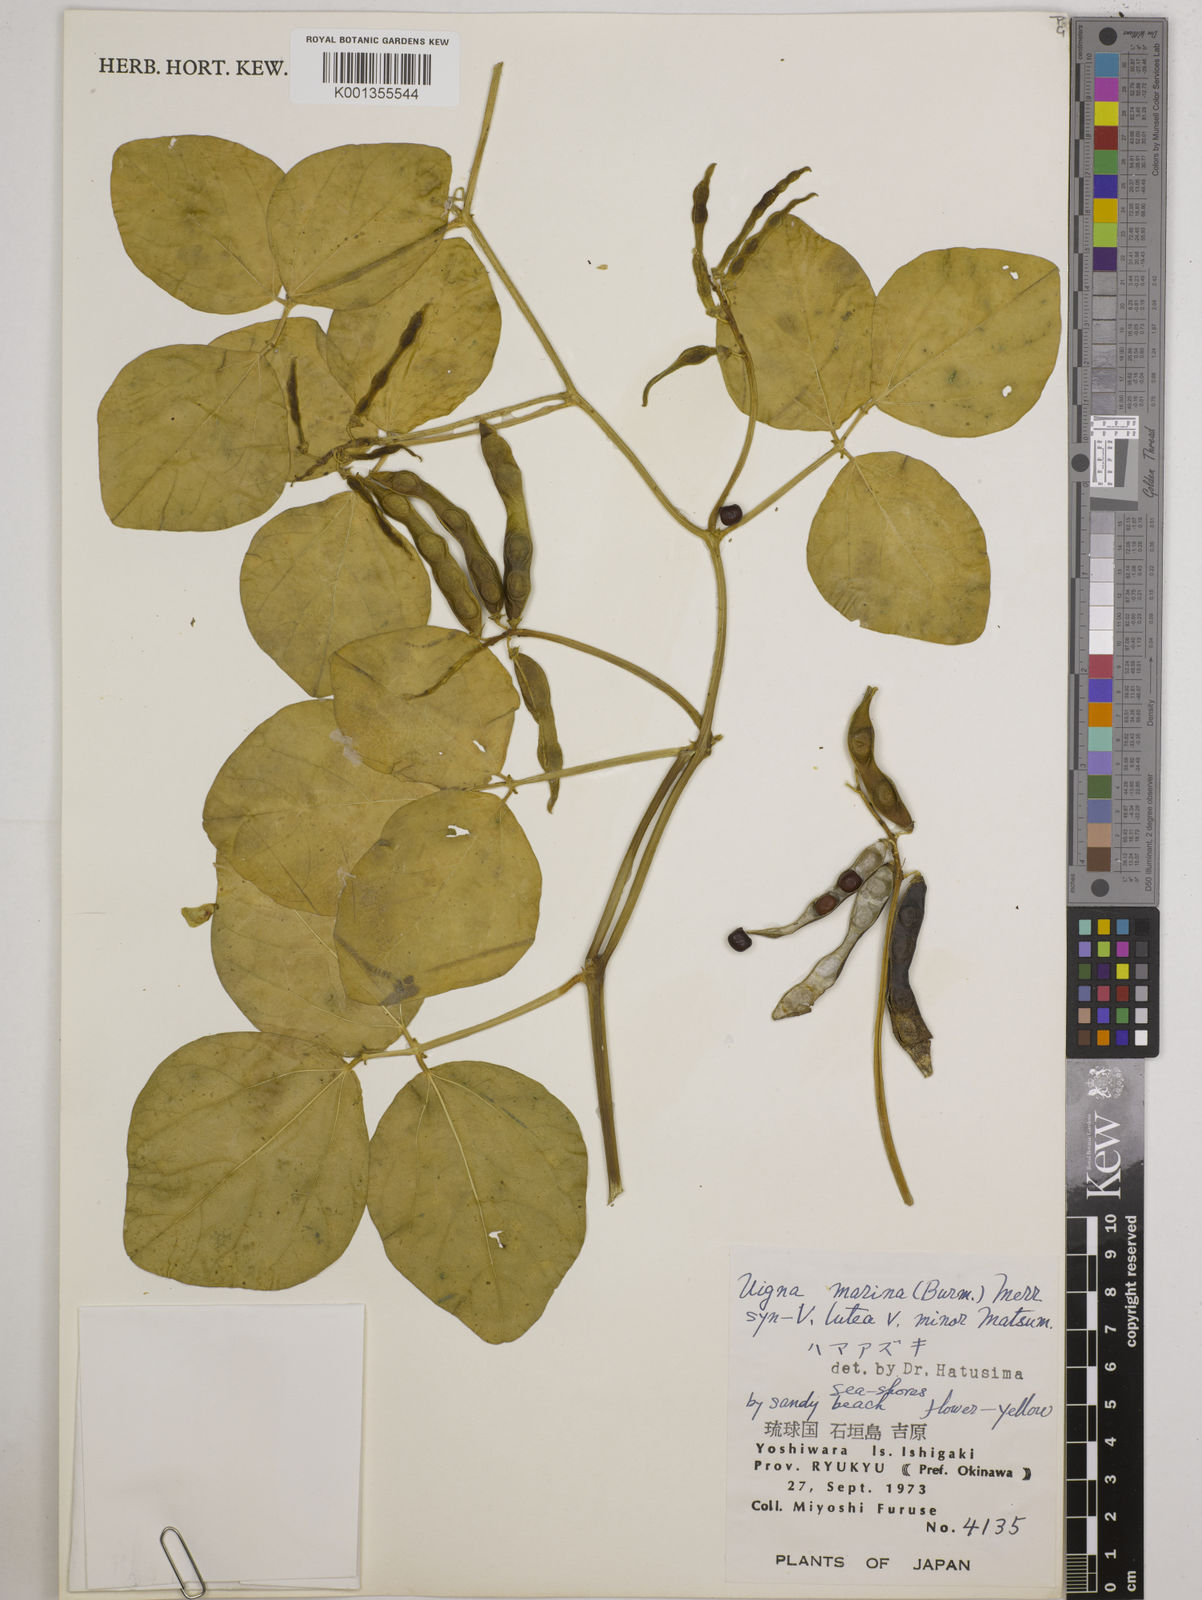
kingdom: Plantae
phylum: Tracheophyta
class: Magnoliopsida
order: Fabales
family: Fabaceae
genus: Vigna
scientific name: Vigna marina
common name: Dune-bean
